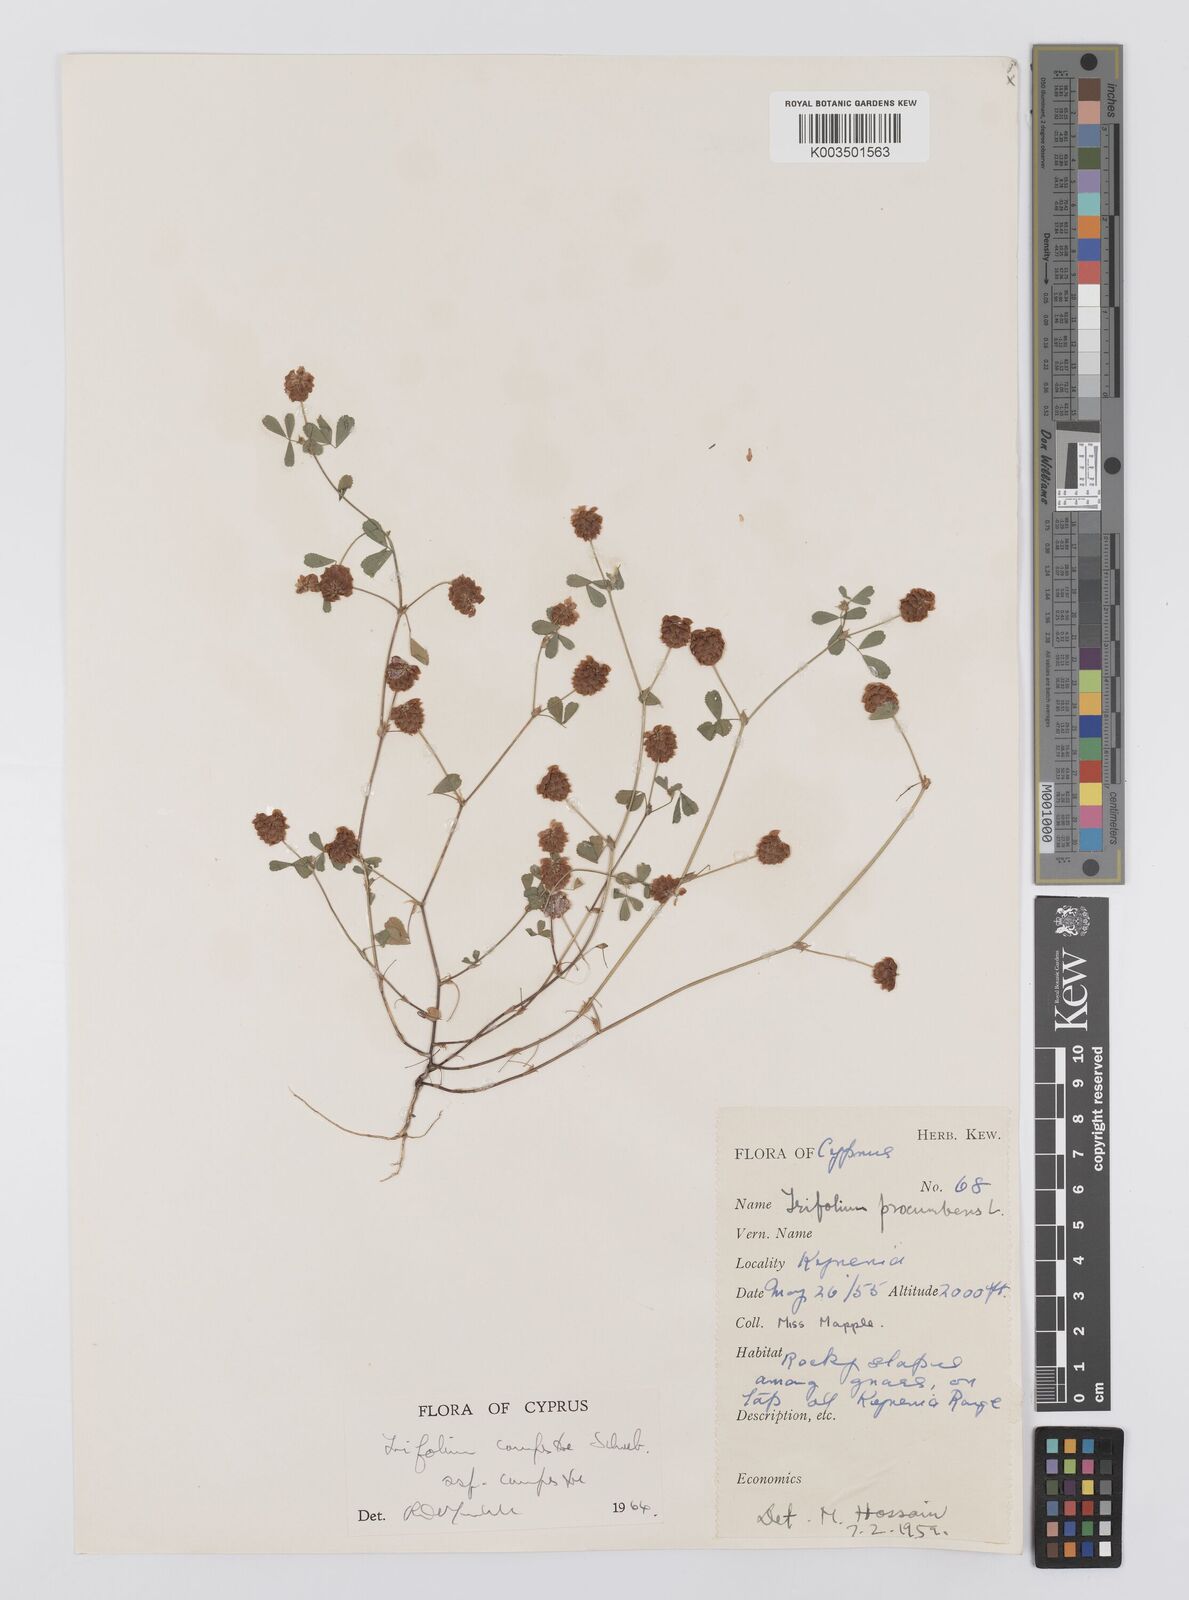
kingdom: Plantae
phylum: Tracheophyta
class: Magnoliopsida
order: Fabales
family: Fabaceae
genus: Trifolium
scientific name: Trifolium campestre
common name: Field clover
